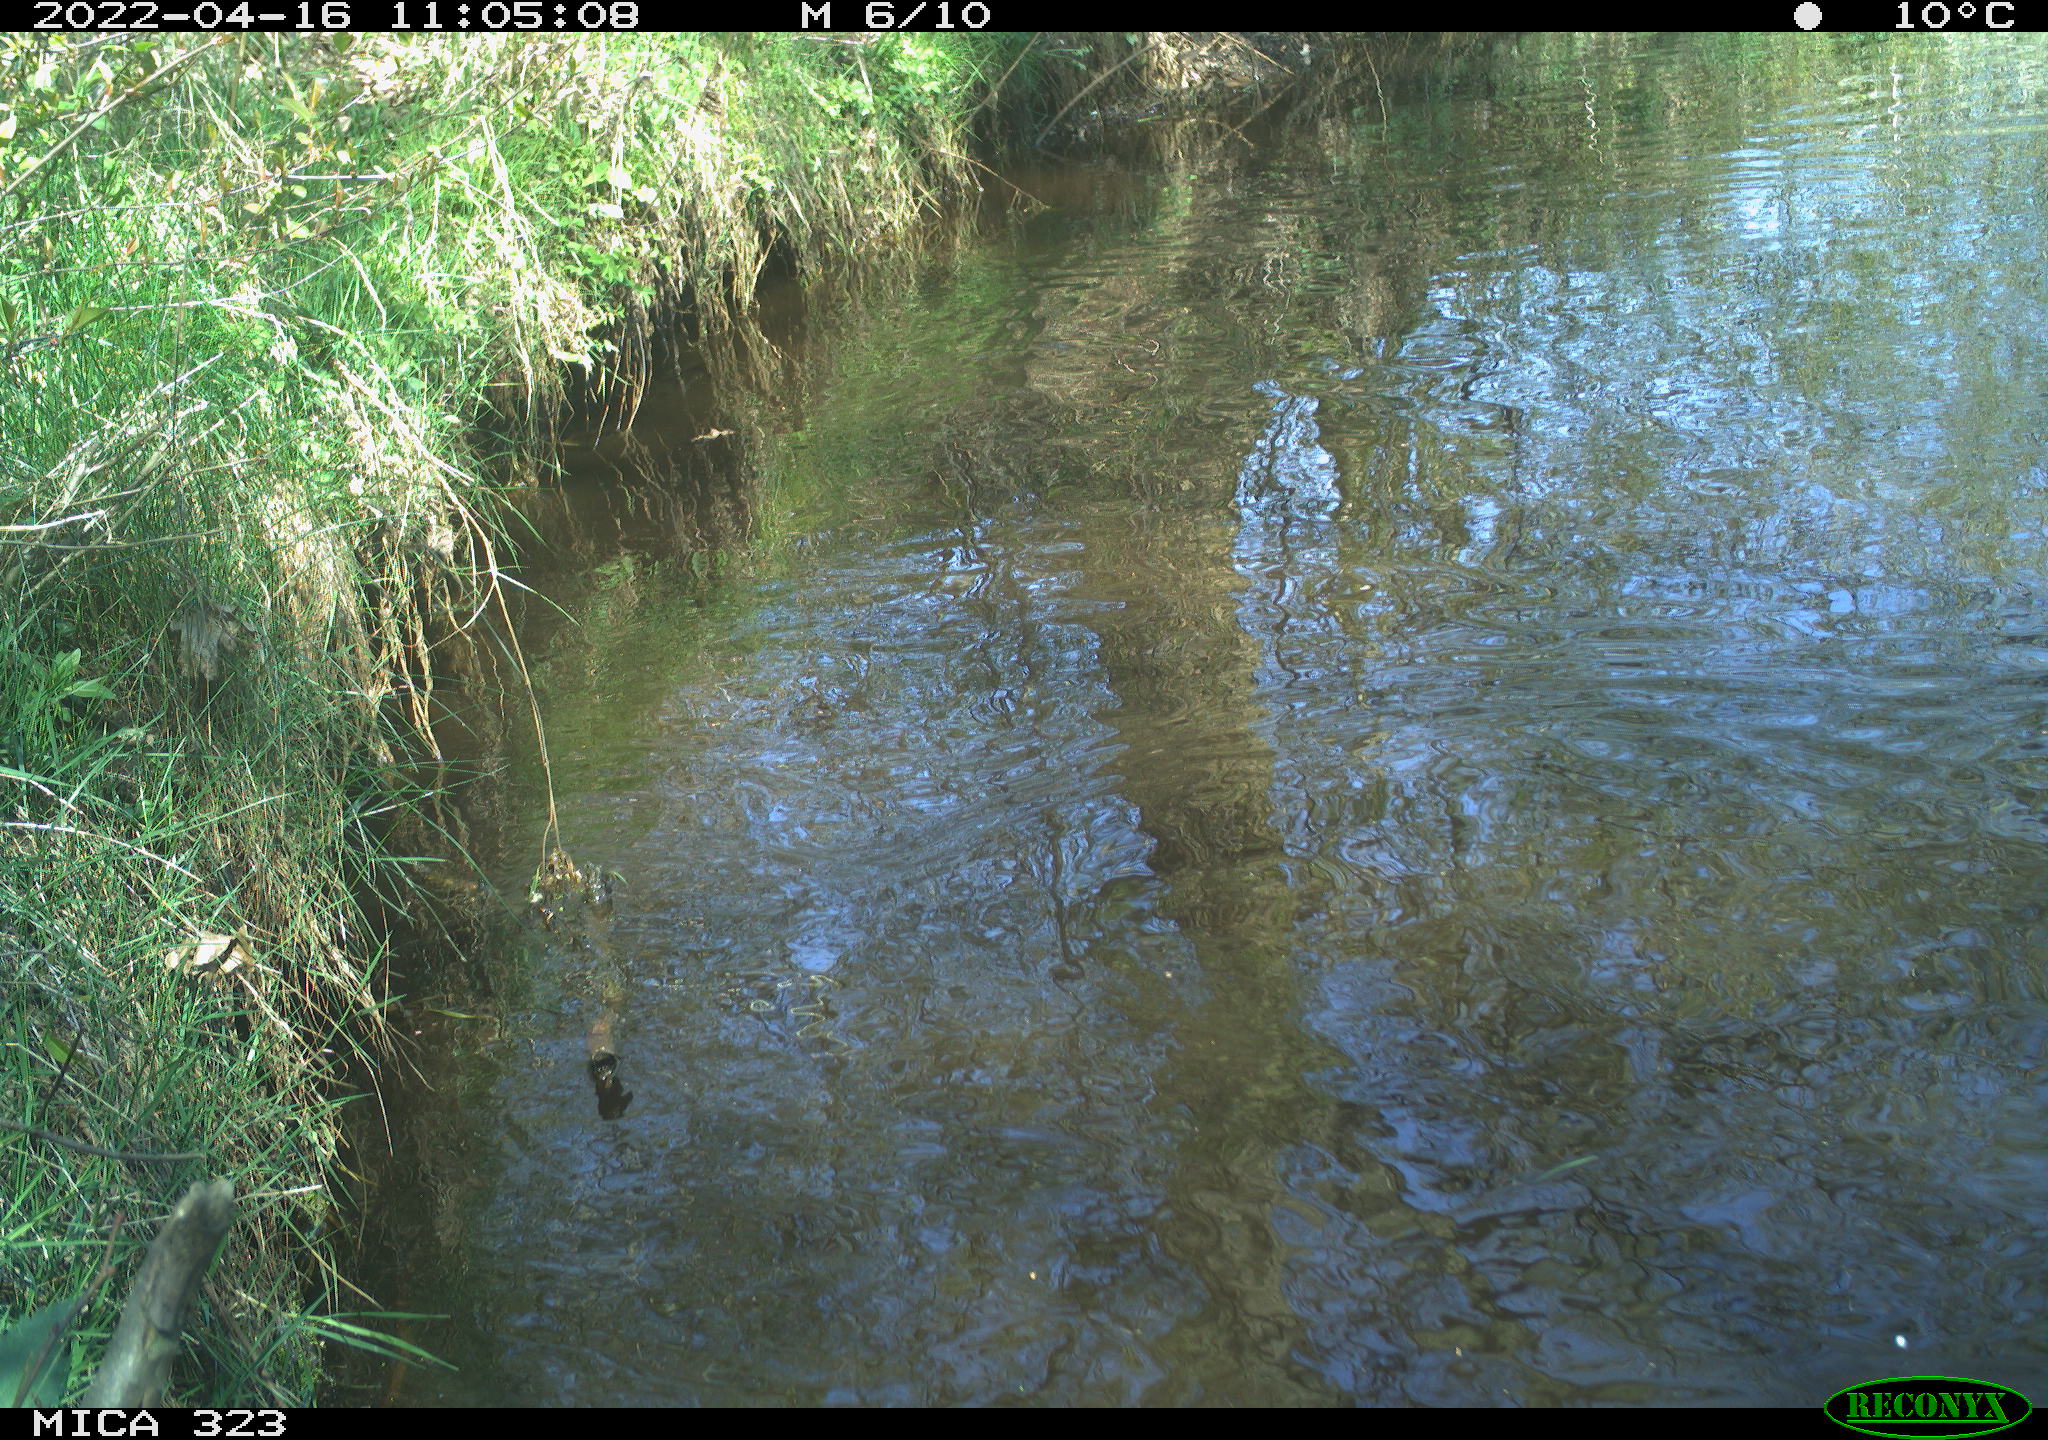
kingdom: Animalia
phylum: Chordata
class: Aves
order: Gruiformes
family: Rallidae
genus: Gallinula
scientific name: Gallinula chloropus
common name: Common moorhen
